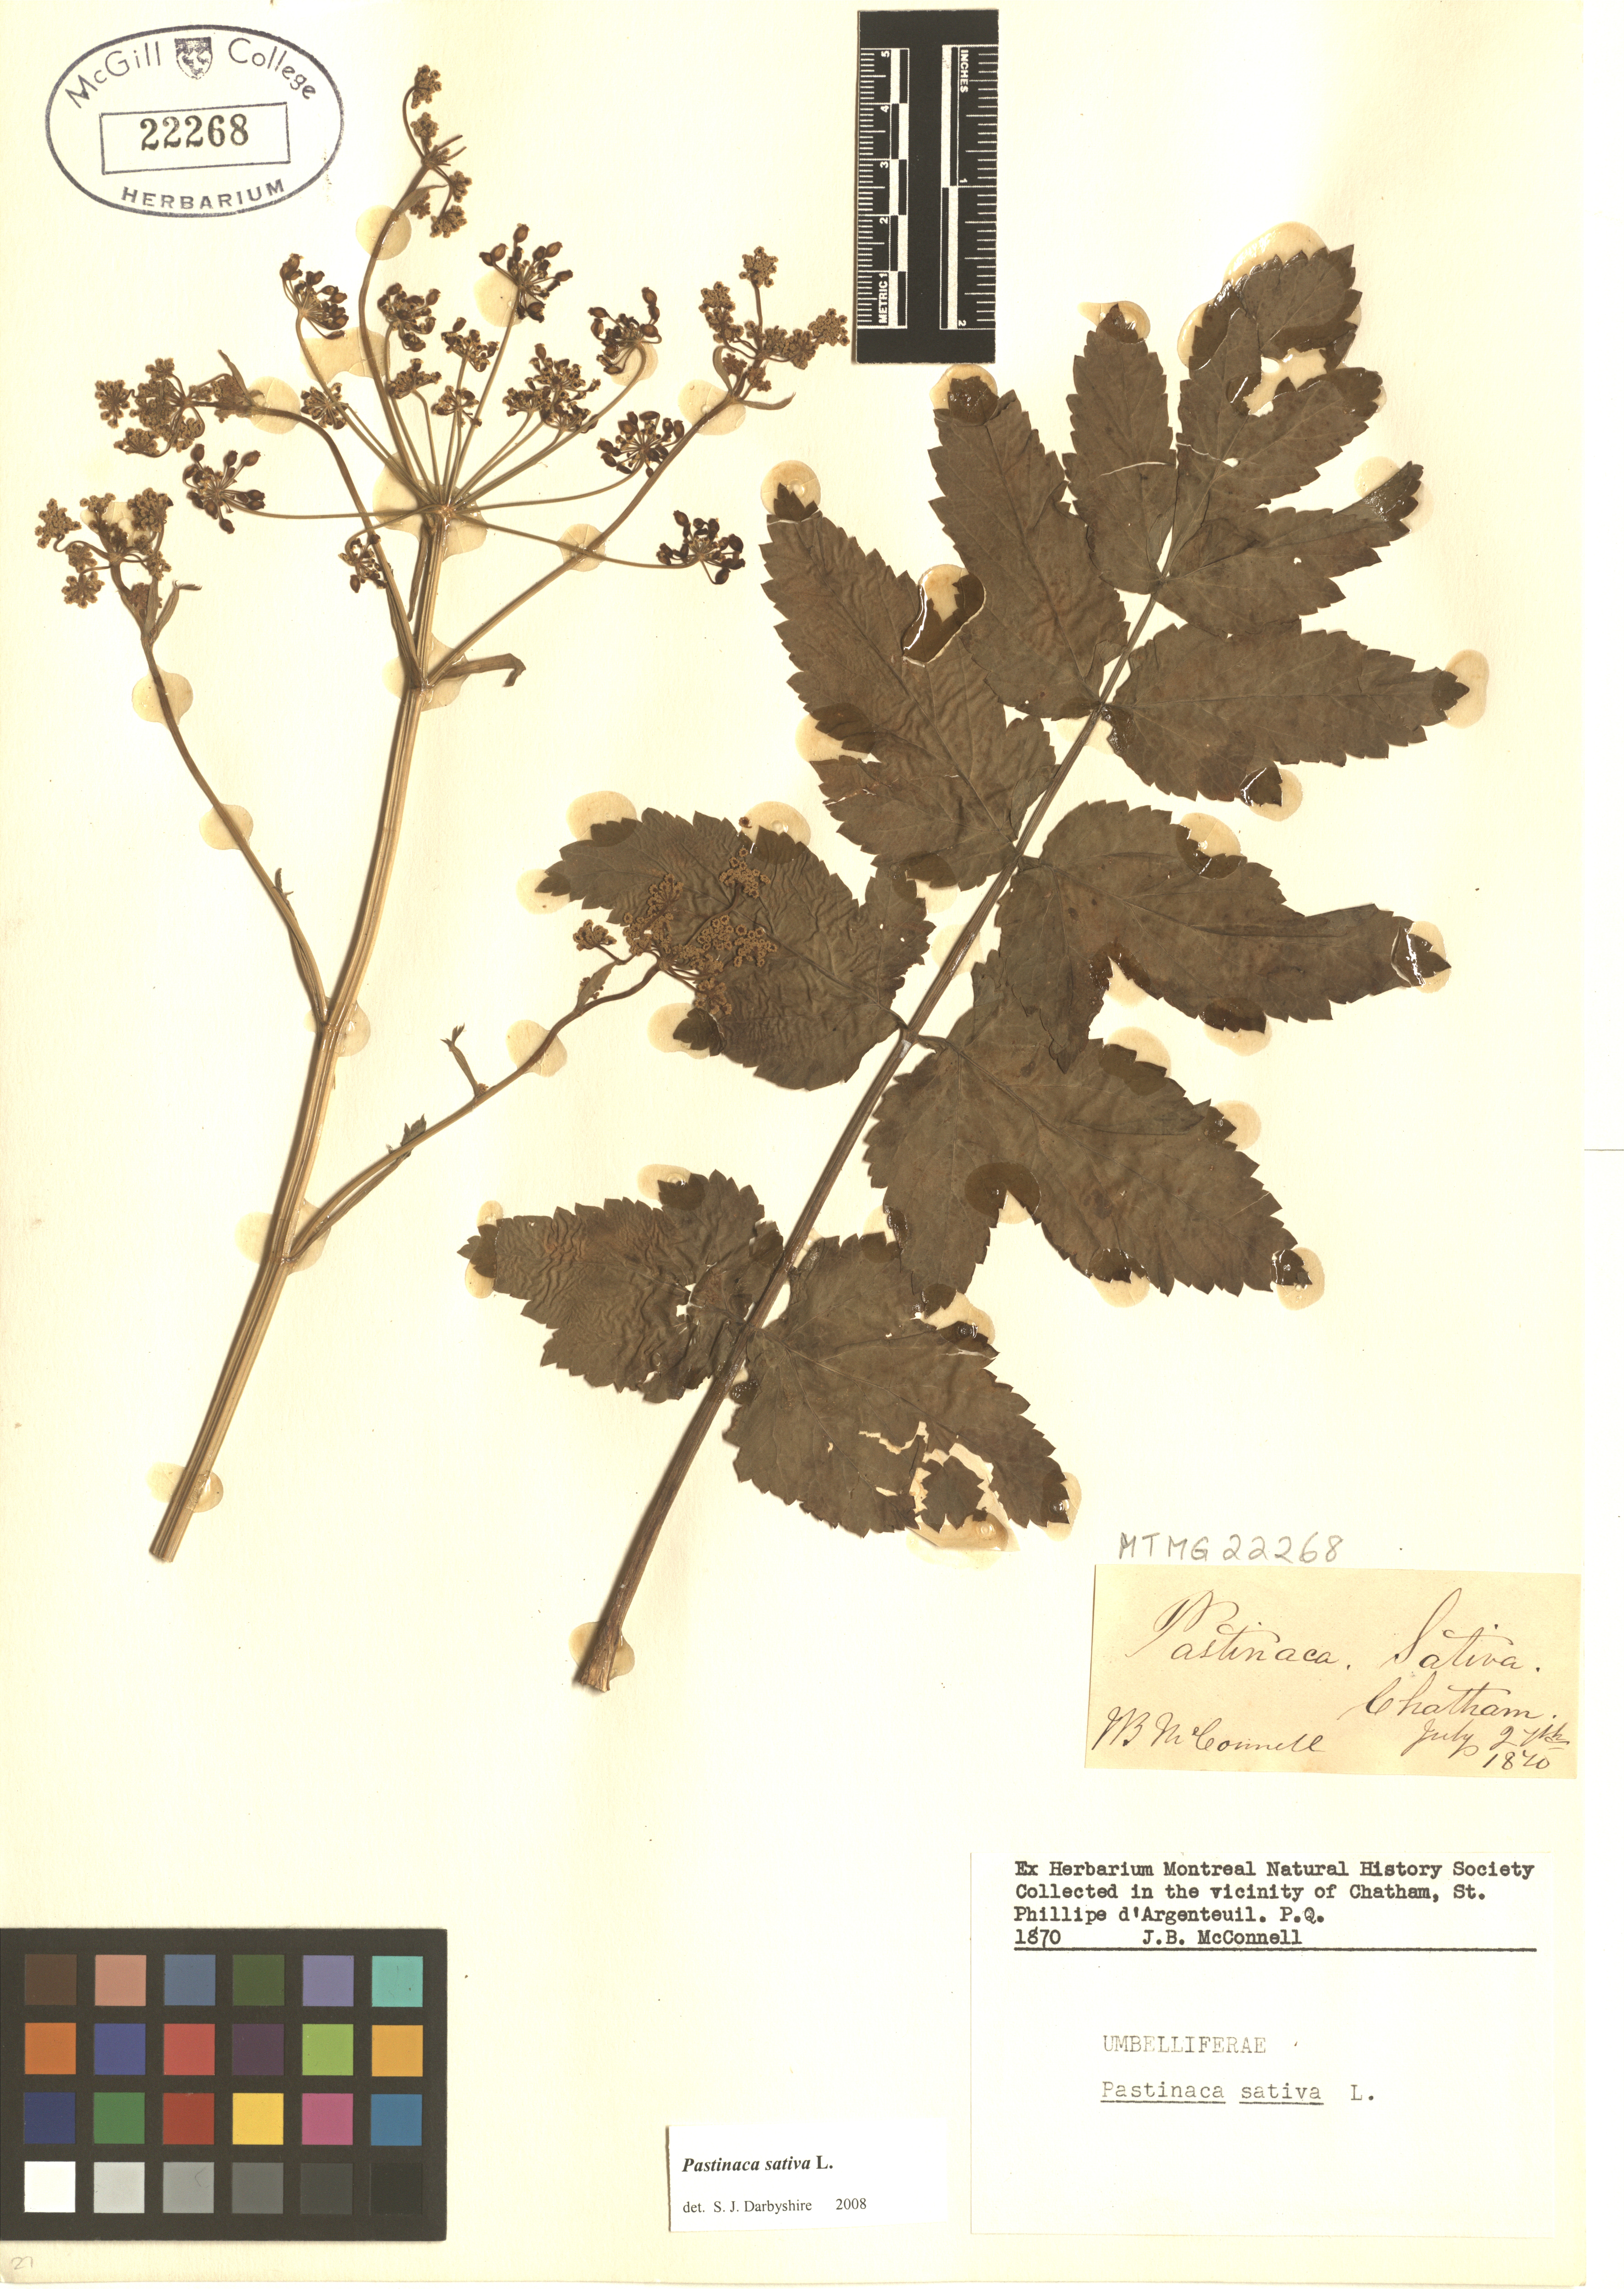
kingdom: Plantae
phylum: Tracheophyta
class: Magnoliopsida
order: Apiales
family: Apiaceae
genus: Pastinaca
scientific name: Pastinaca sativa
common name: Wild parsnip
